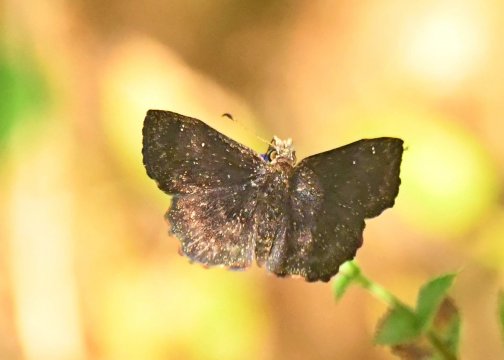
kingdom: Animalia
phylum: Arthropoda
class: Insecta
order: Lepidoptera
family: Hesperiidae
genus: Staphylus
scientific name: Staphylus mazans
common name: Hayhurst's Scallopwing
